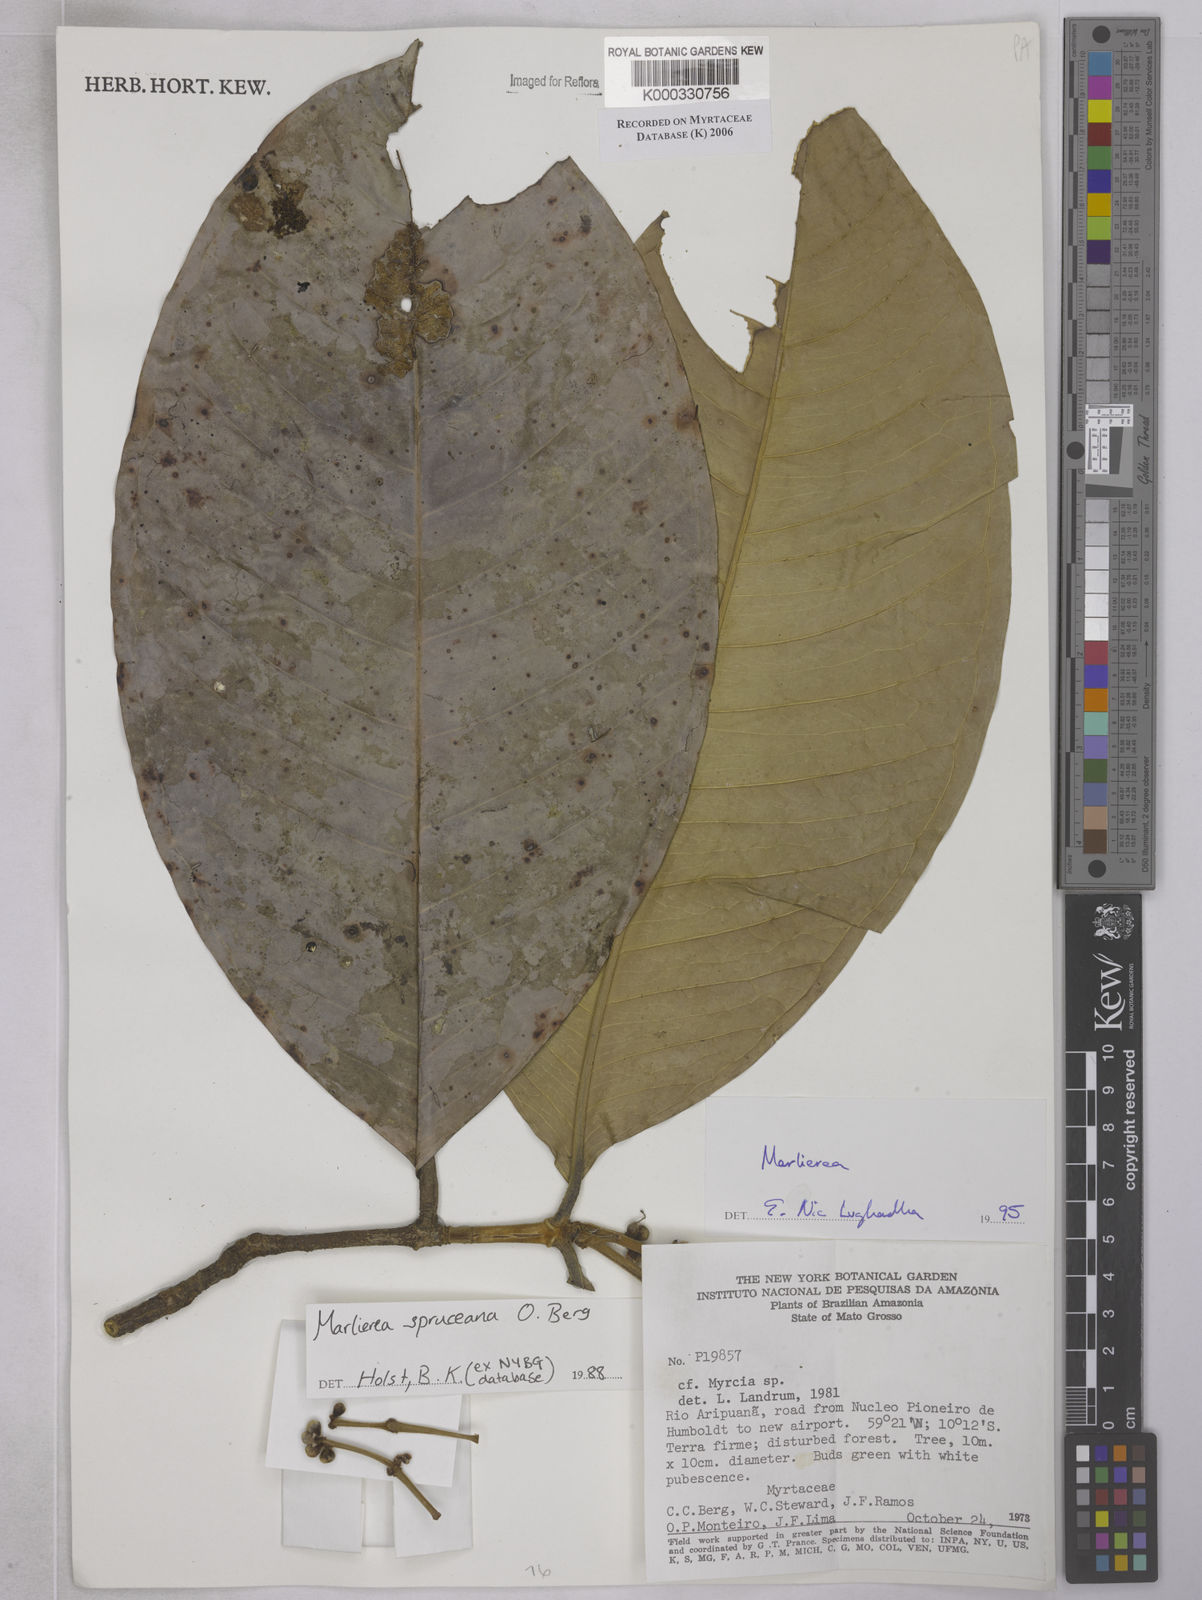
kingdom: Plantae
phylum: Tracheophyta
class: Magnoliopsida
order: Myrtales
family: Myrtaceae
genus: Marlierea
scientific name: Marlierea
